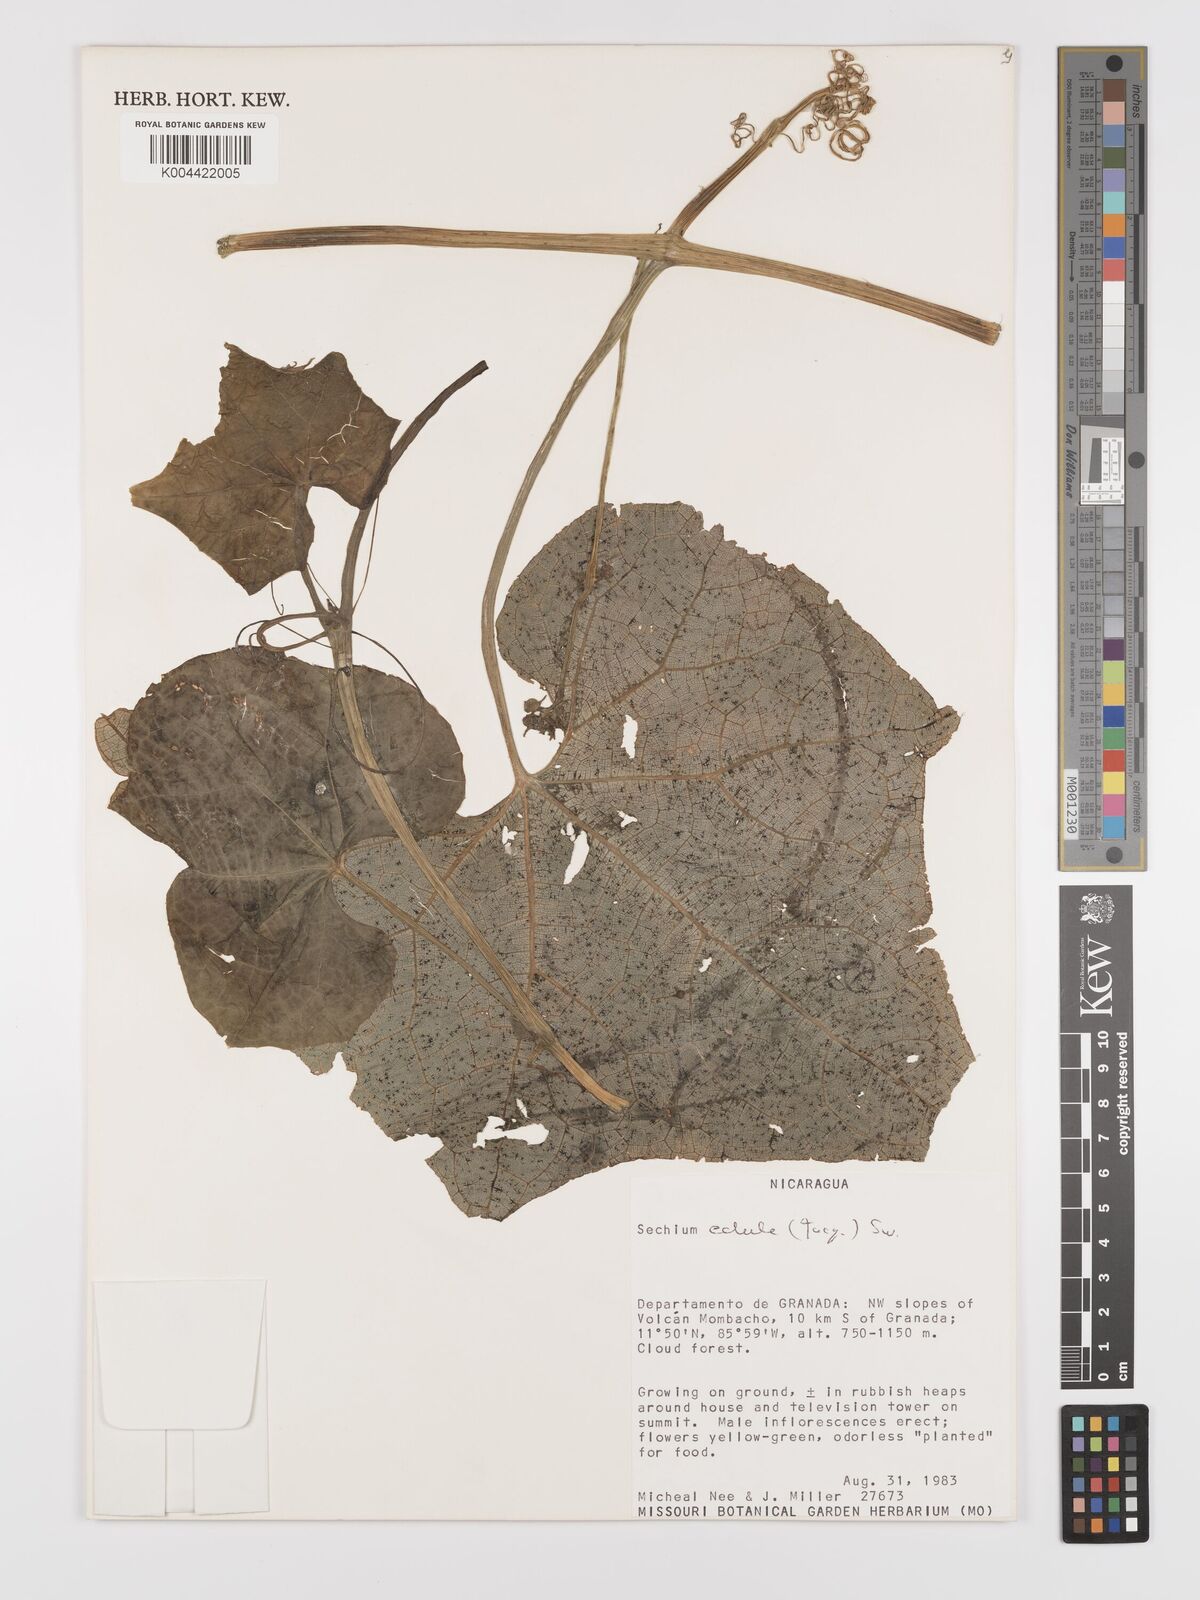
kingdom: Plantae
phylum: Tracheophyta
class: Magnoliopsida
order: Cucurbitales
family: Cucurbitaceae
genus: Sechium
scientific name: Sechium edule
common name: Chayote
